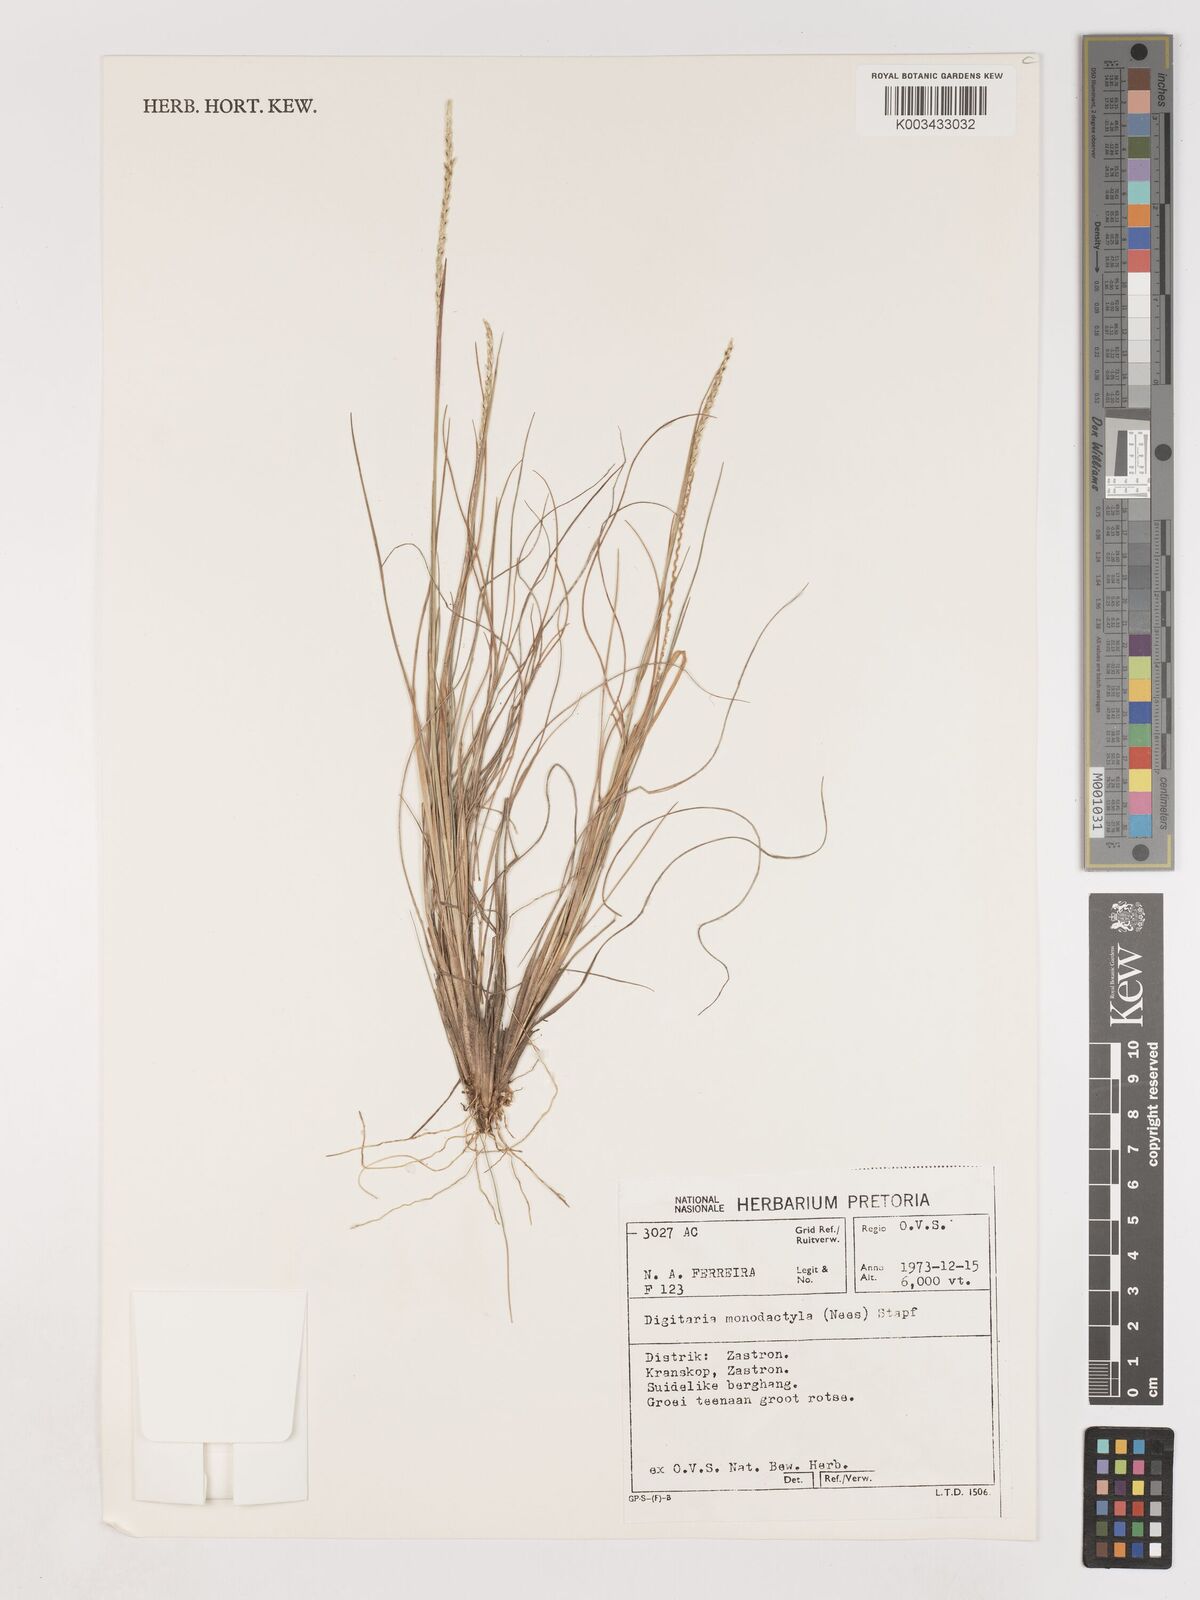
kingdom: Plantae
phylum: Tracheophyta
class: Liliopsida
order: Poales
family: Poaceae
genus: Digitaria
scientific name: Digitaria monodactyla
